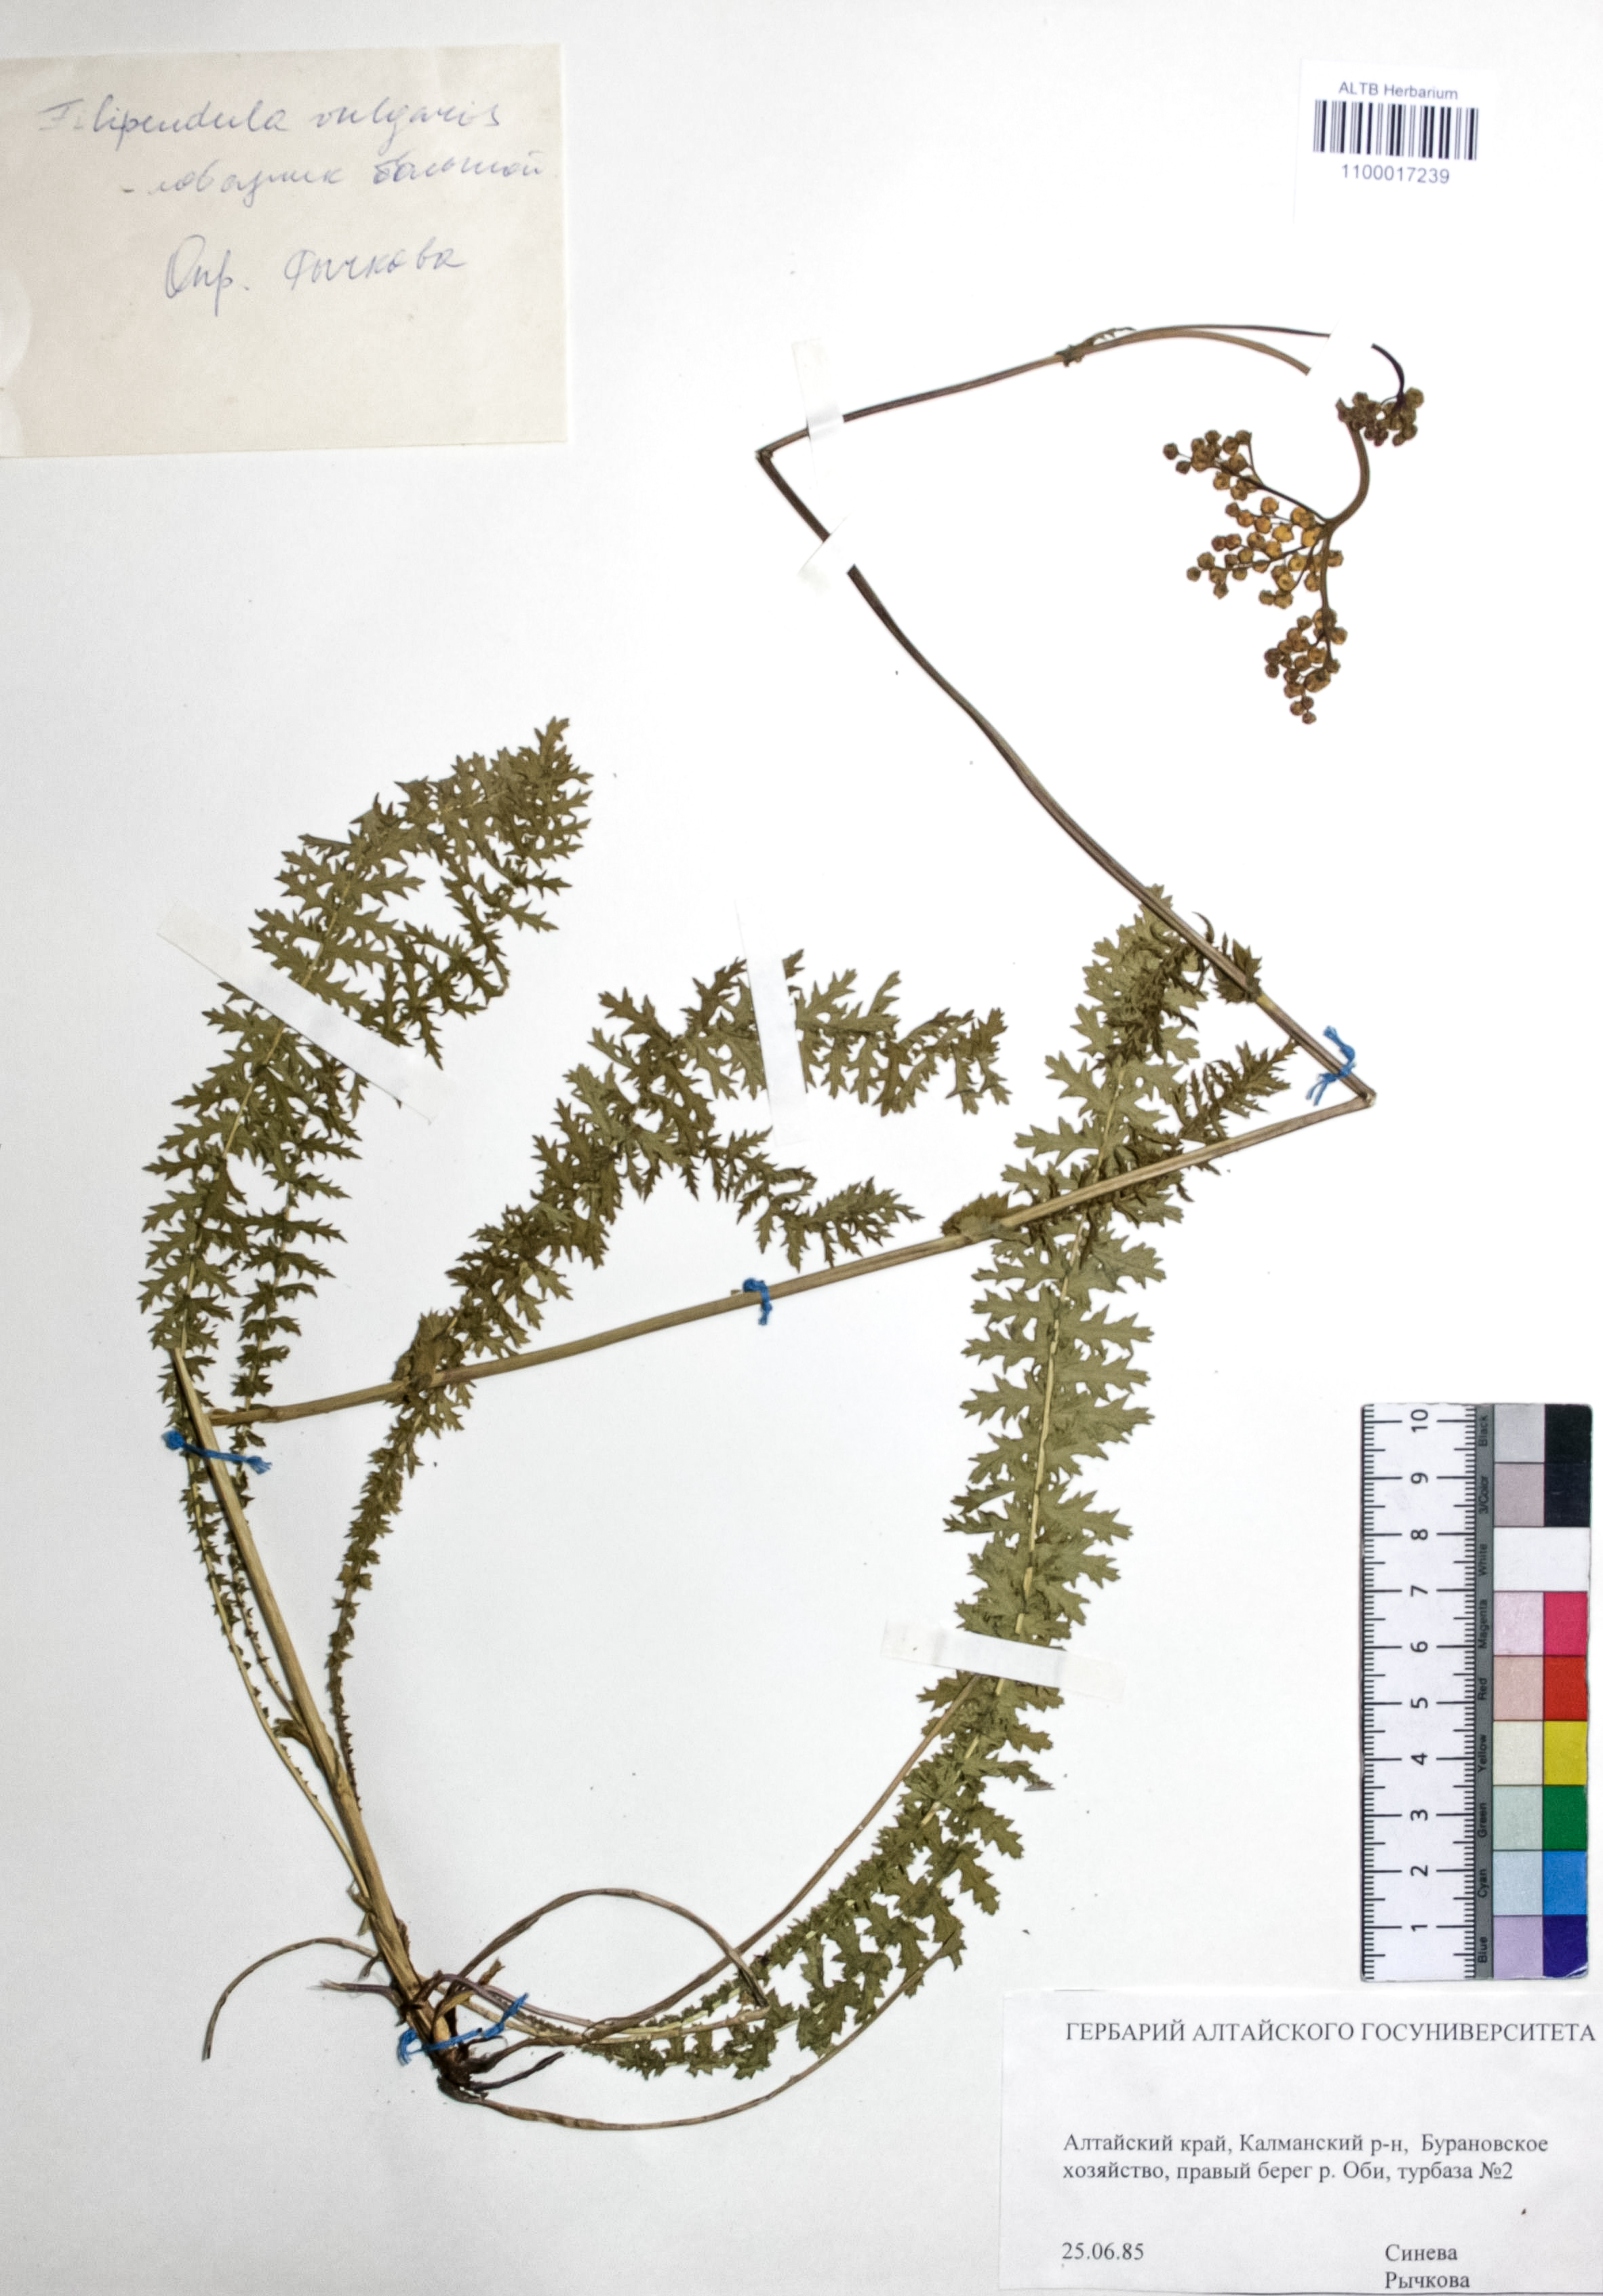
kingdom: Plantae
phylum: Tracheophyta
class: Magnoliopsida
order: Rosales
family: Rosaceae
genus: Filipendula
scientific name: Filipendula vulgaris
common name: Dropwort
